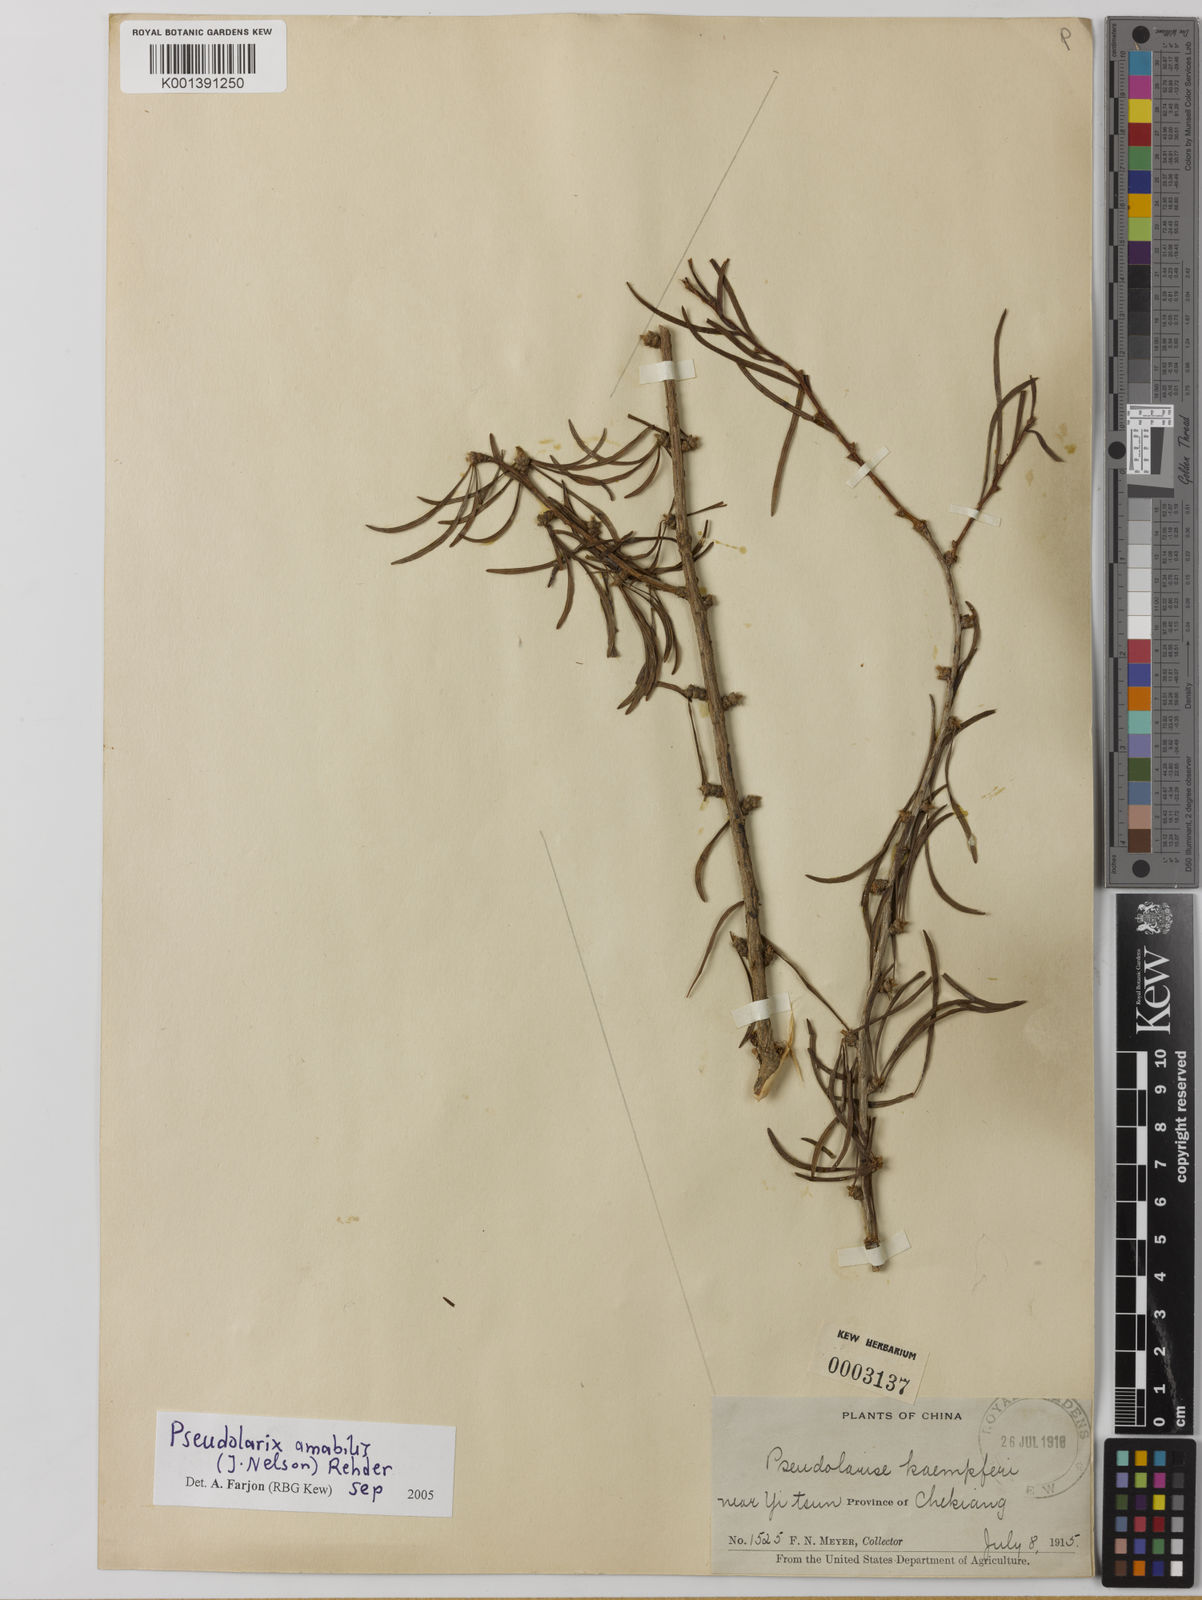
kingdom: Plantae
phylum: Tracheophyta
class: Pinopsida
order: Pinales
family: Pinaceae
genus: Pseudolarix
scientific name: Pseudolarix amabilis
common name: Chinese golden larch
